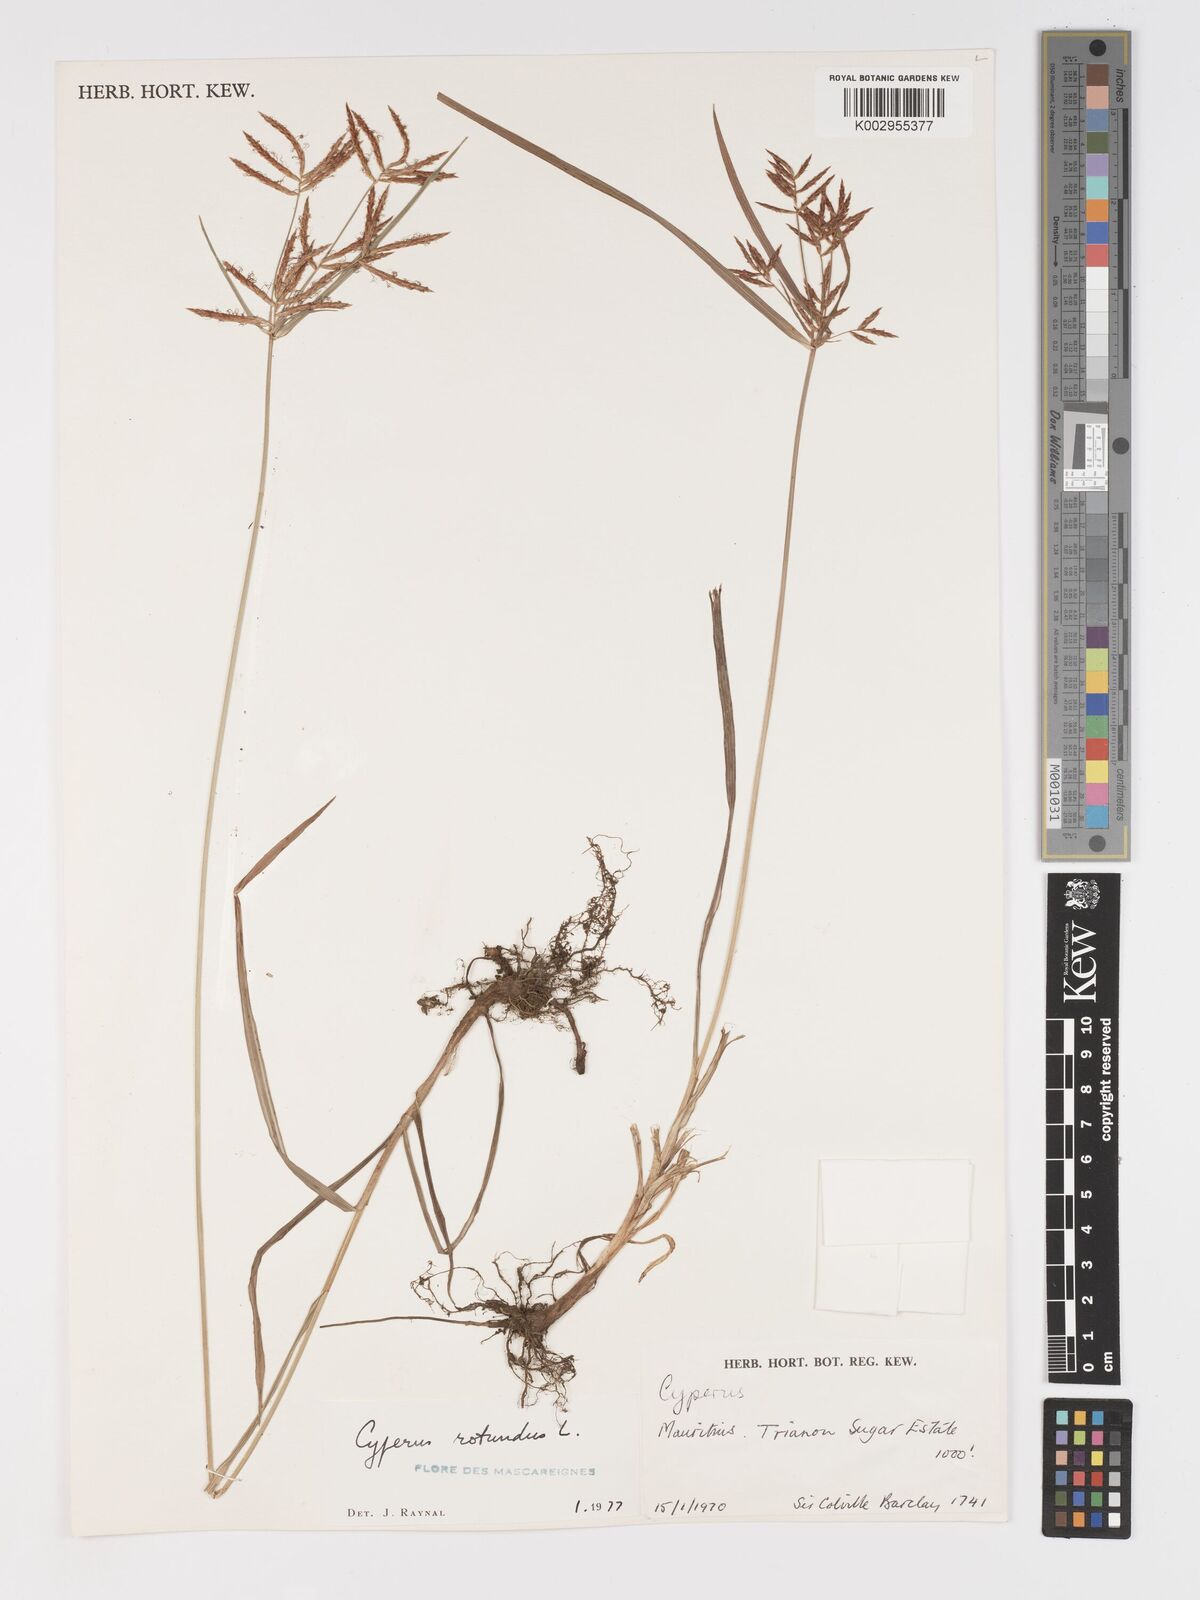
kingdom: Plantae
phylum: Tracheophyta
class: Liliopsida
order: Poales
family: Cyperaceae
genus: Cyperus
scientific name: Cyperus rotundus
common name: Nutgrass
